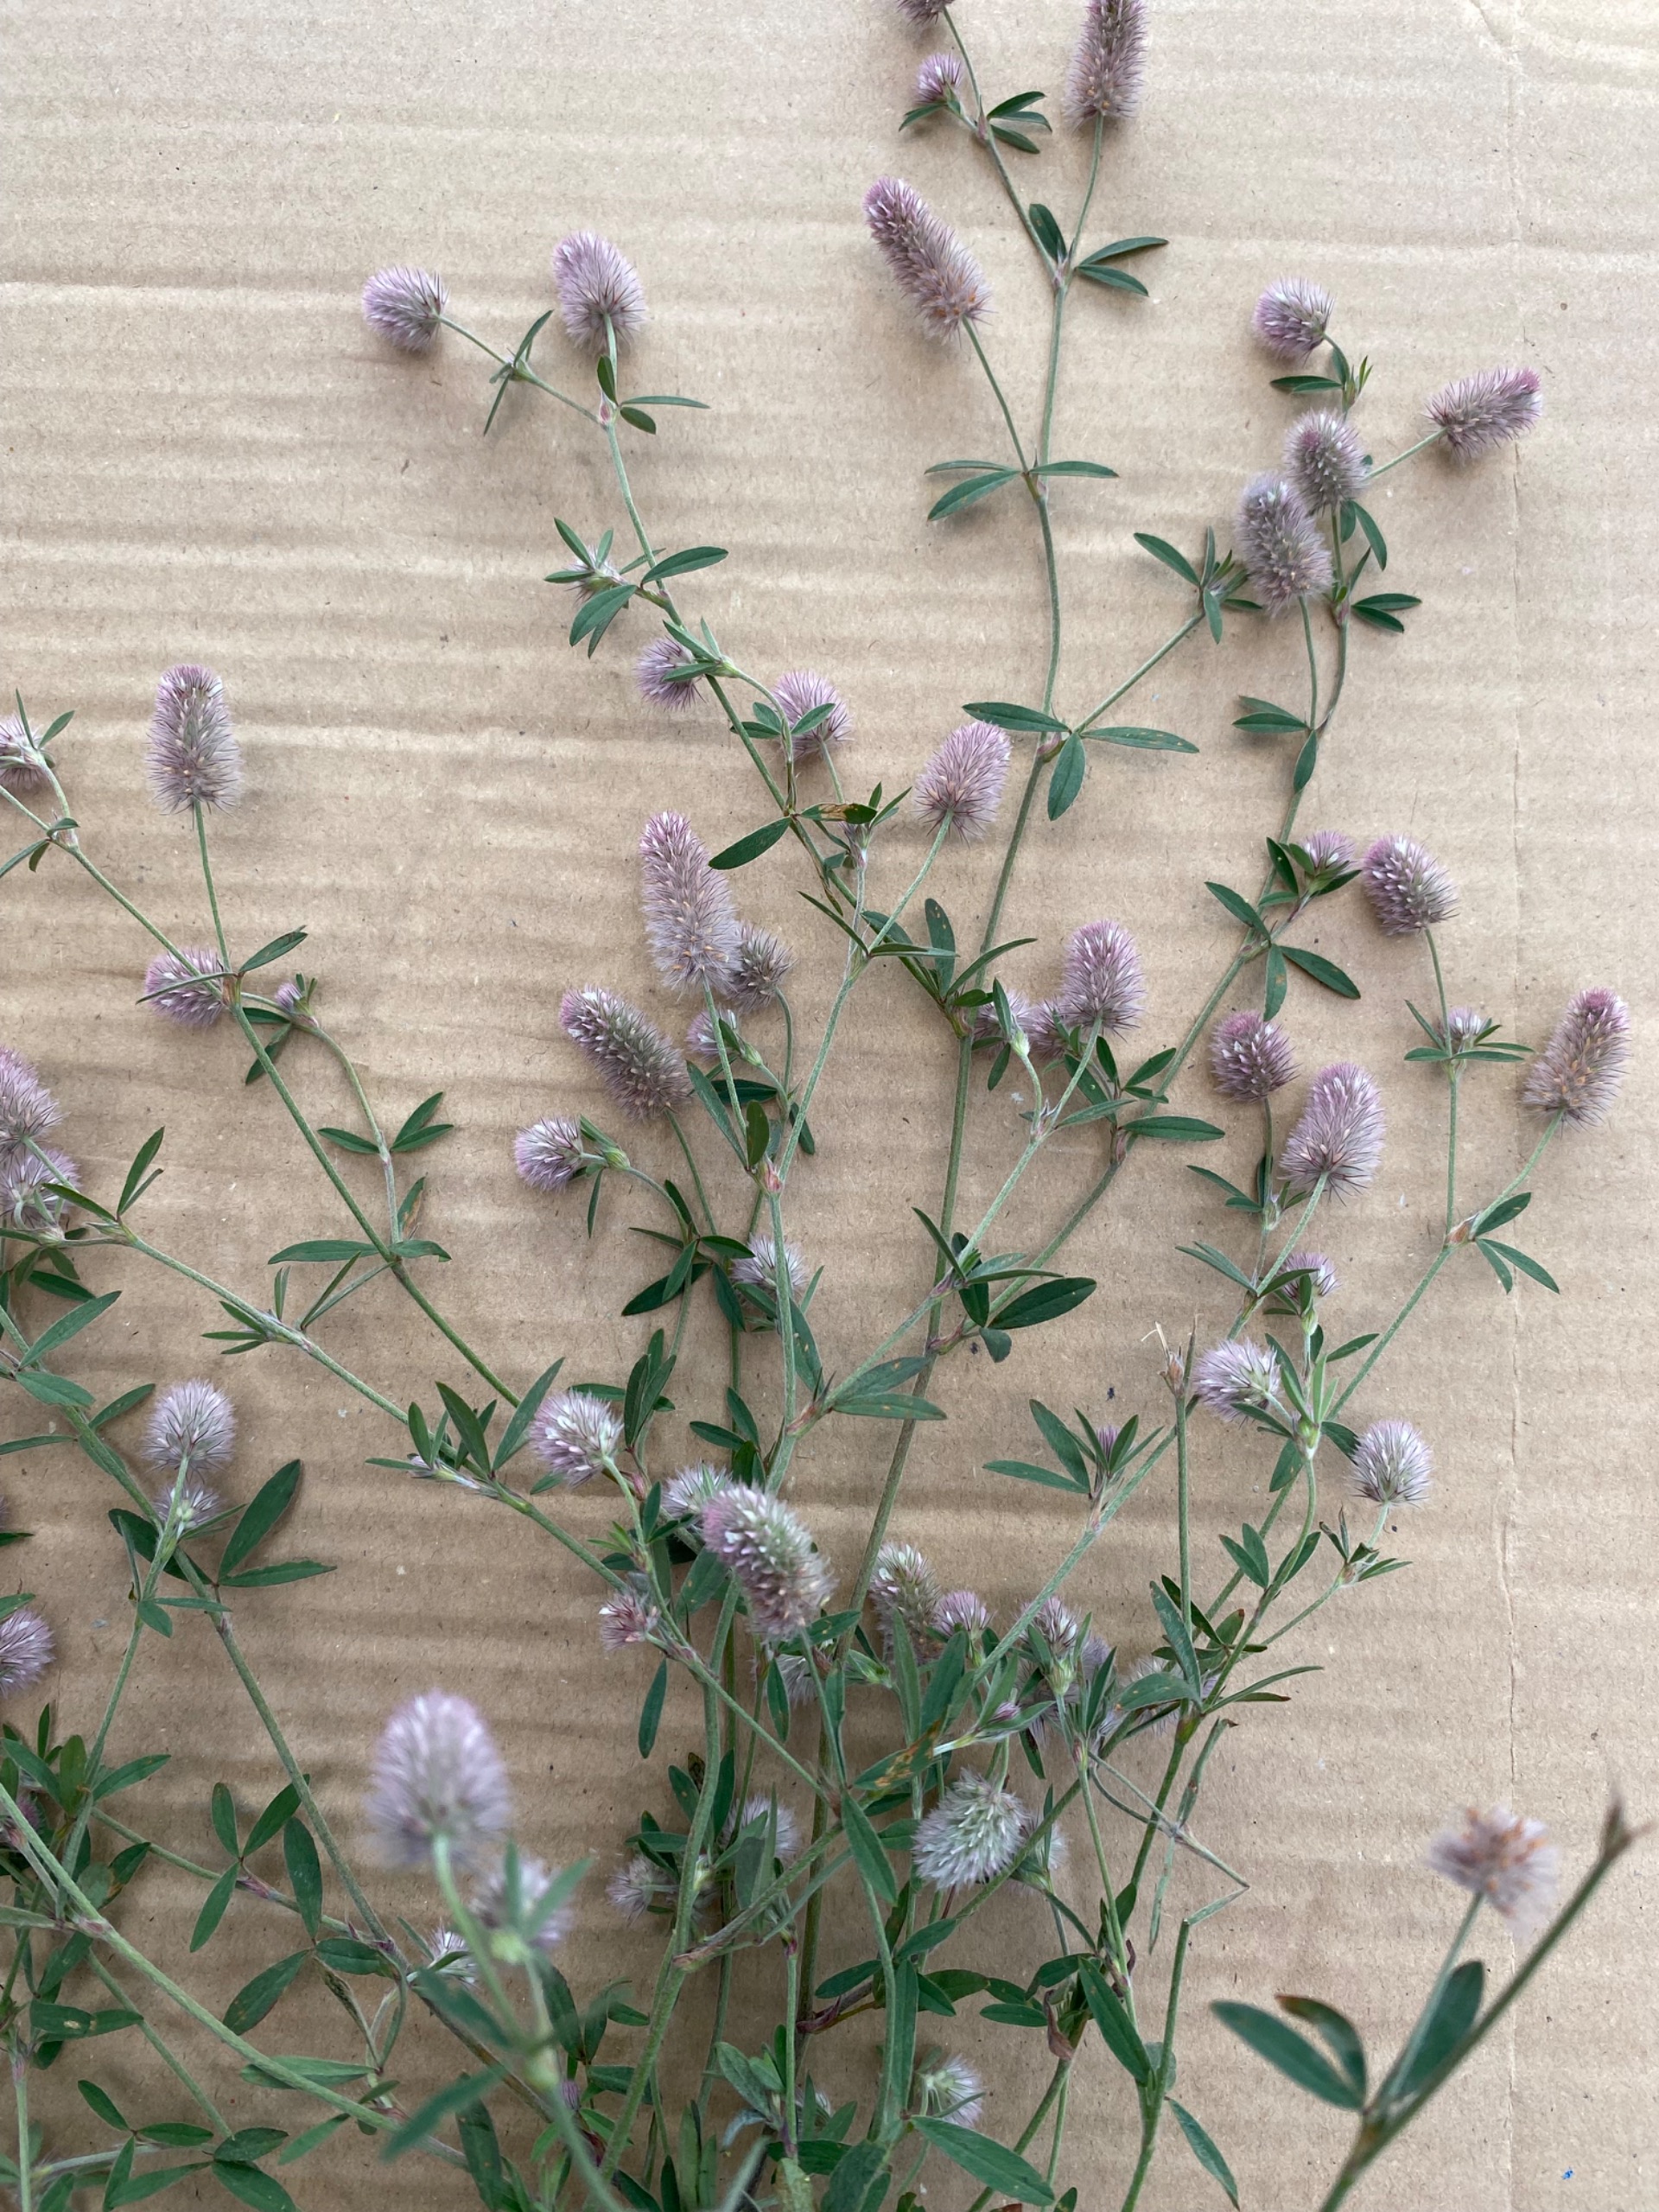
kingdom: Plantae
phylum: Tracheophyta
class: Magnoliopsida
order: Fabales
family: Fabaceae
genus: Trifolium
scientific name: Trifolium arvense
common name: Hare-kløver
